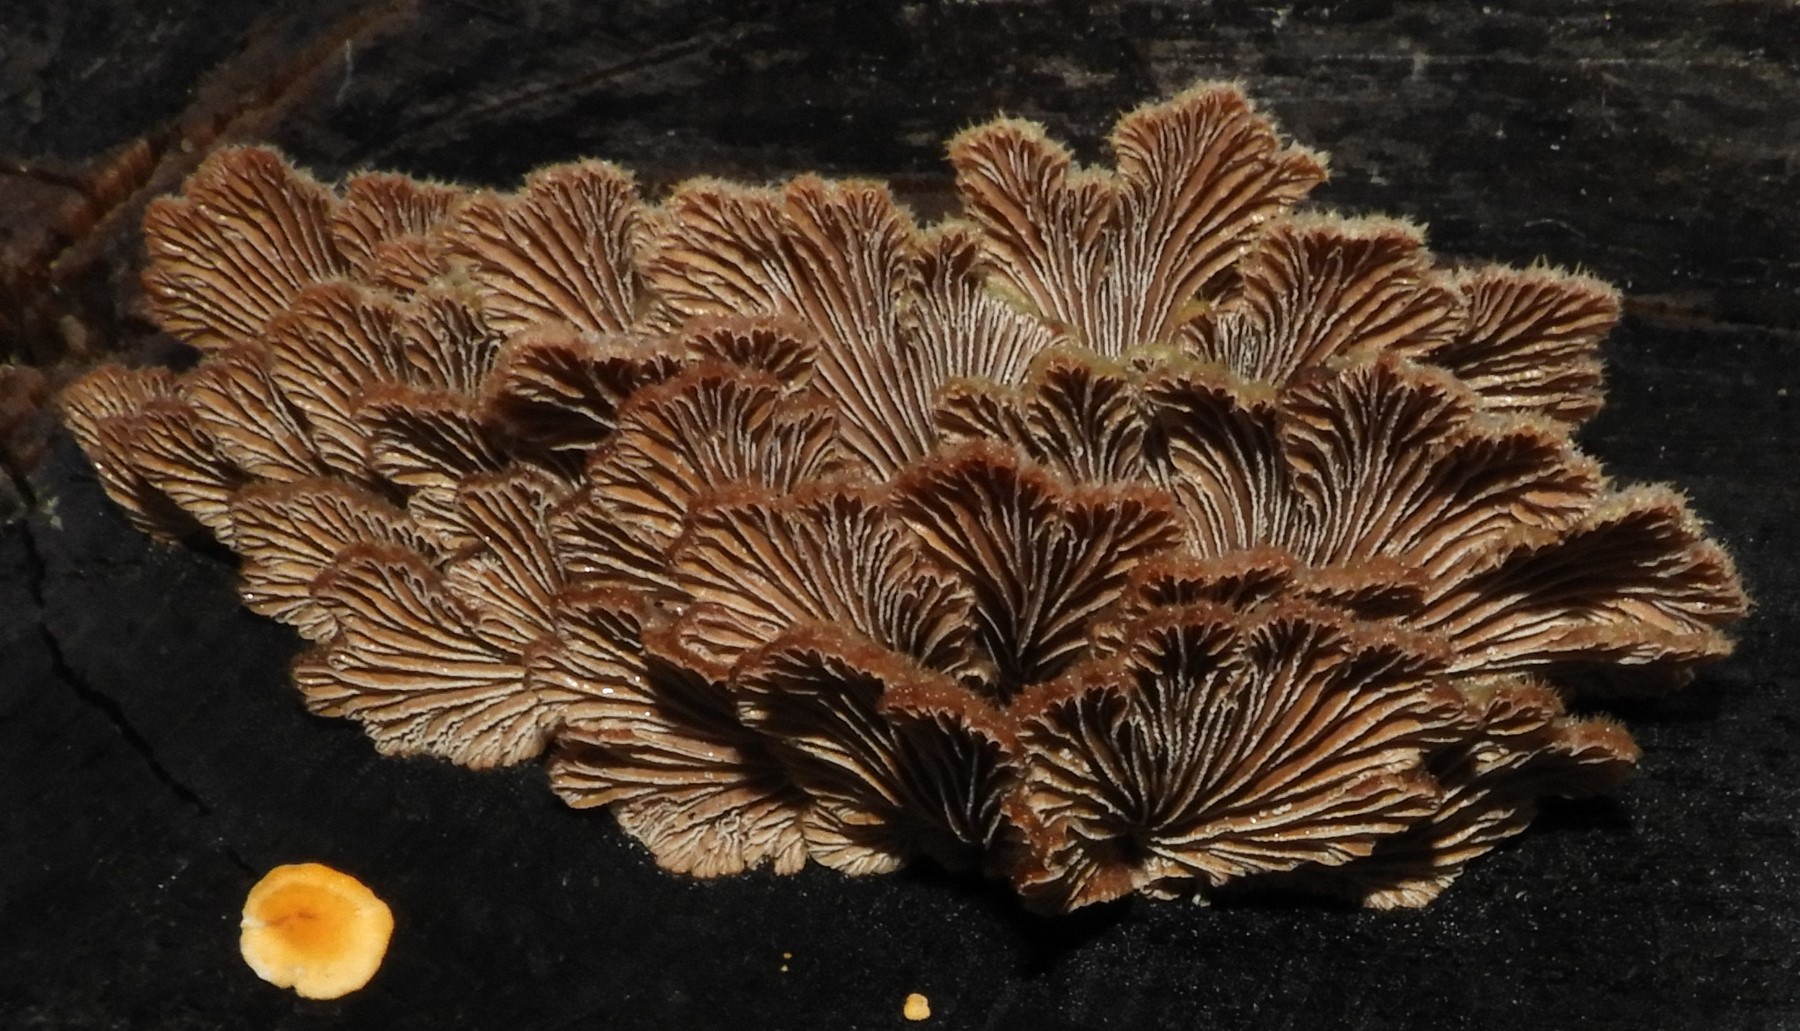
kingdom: Fungi
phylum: Basidiomycota
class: Agaricomycetes
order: Agaricales
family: Schizophyllaceae
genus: Schizophyllum
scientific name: Schizophyllum commune
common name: kløvblad
